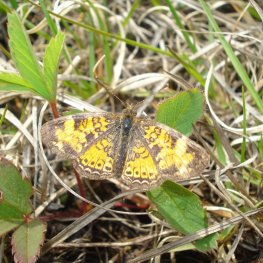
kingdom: Animalia
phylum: Arthropoda
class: Insecta
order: Lepidoptera
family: Nymphalidae
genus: Phyciodes
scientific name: Phyciodes tharos
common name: Northern Crescent
